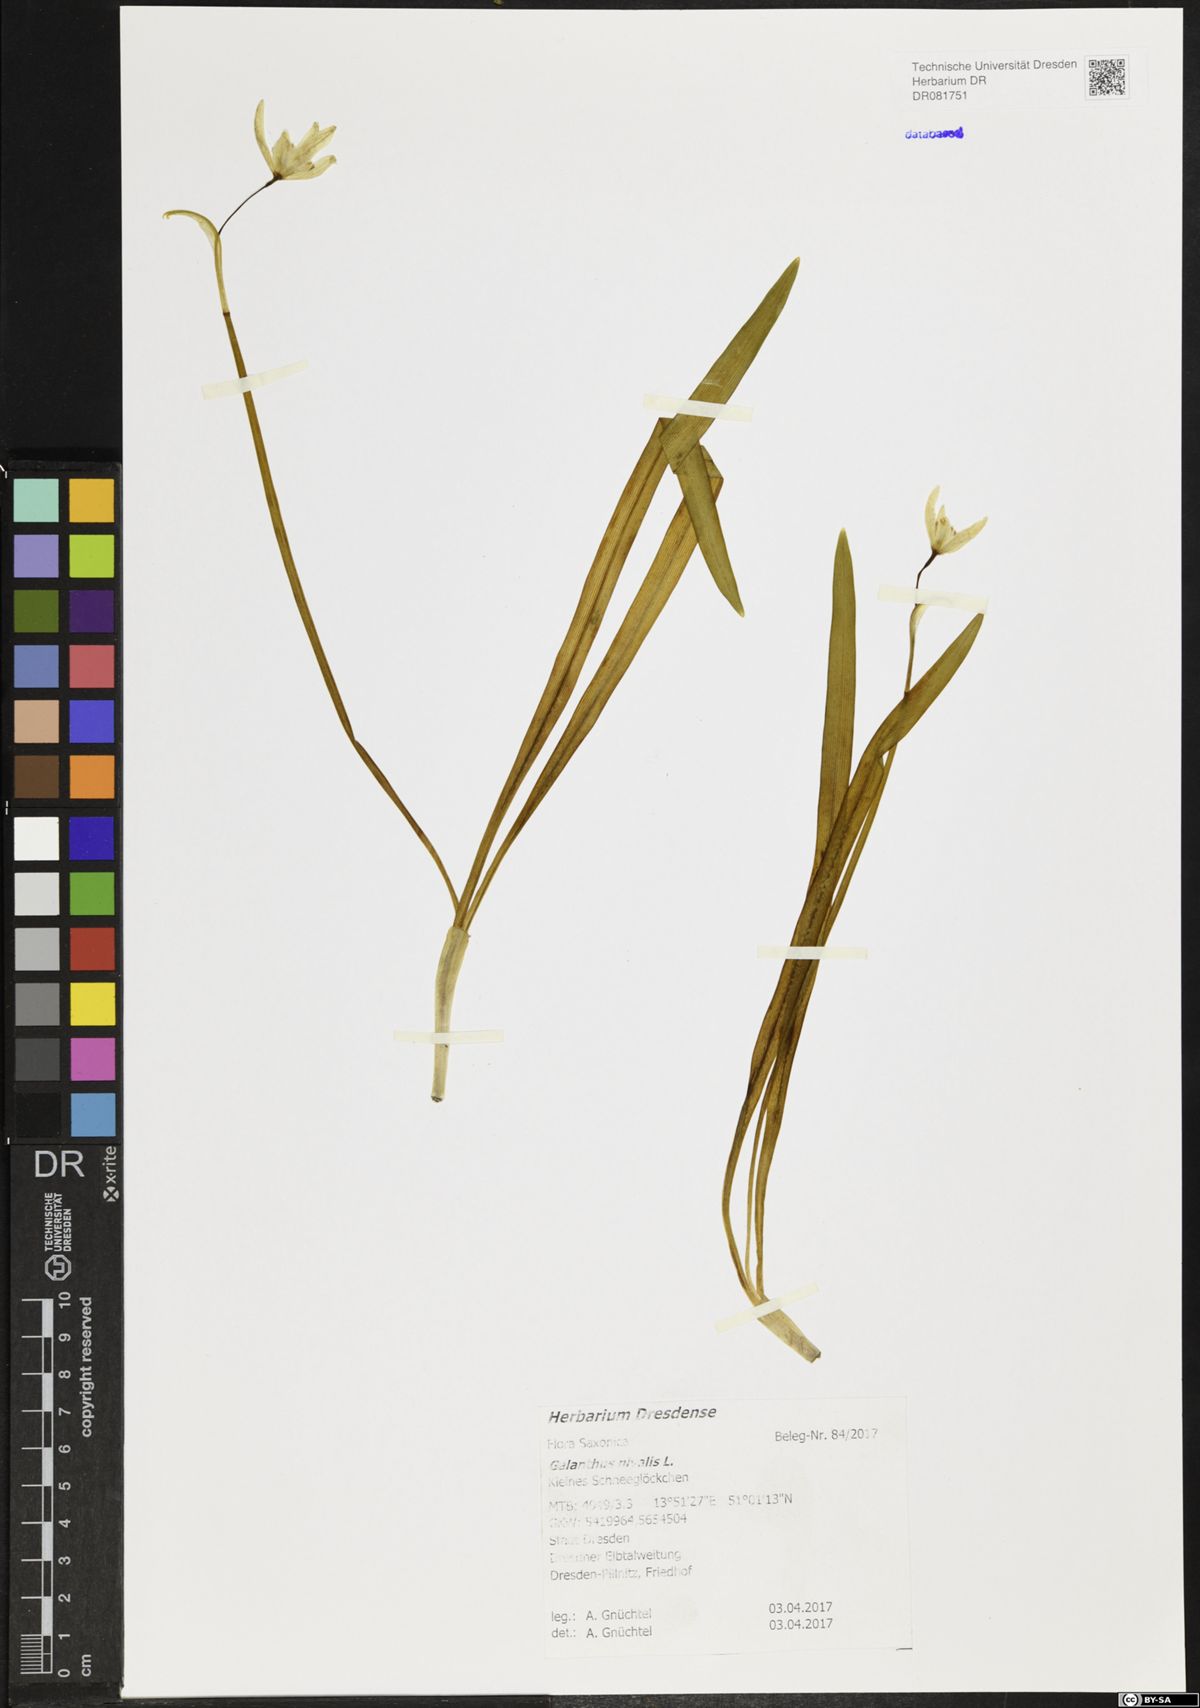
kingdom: Plantae
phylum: Tracheophyta
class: Liliopsida
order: Asparagales
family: Amaryllidaceae
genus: Galanthus
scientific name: Galanthus nivalis
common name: Snowdrop
